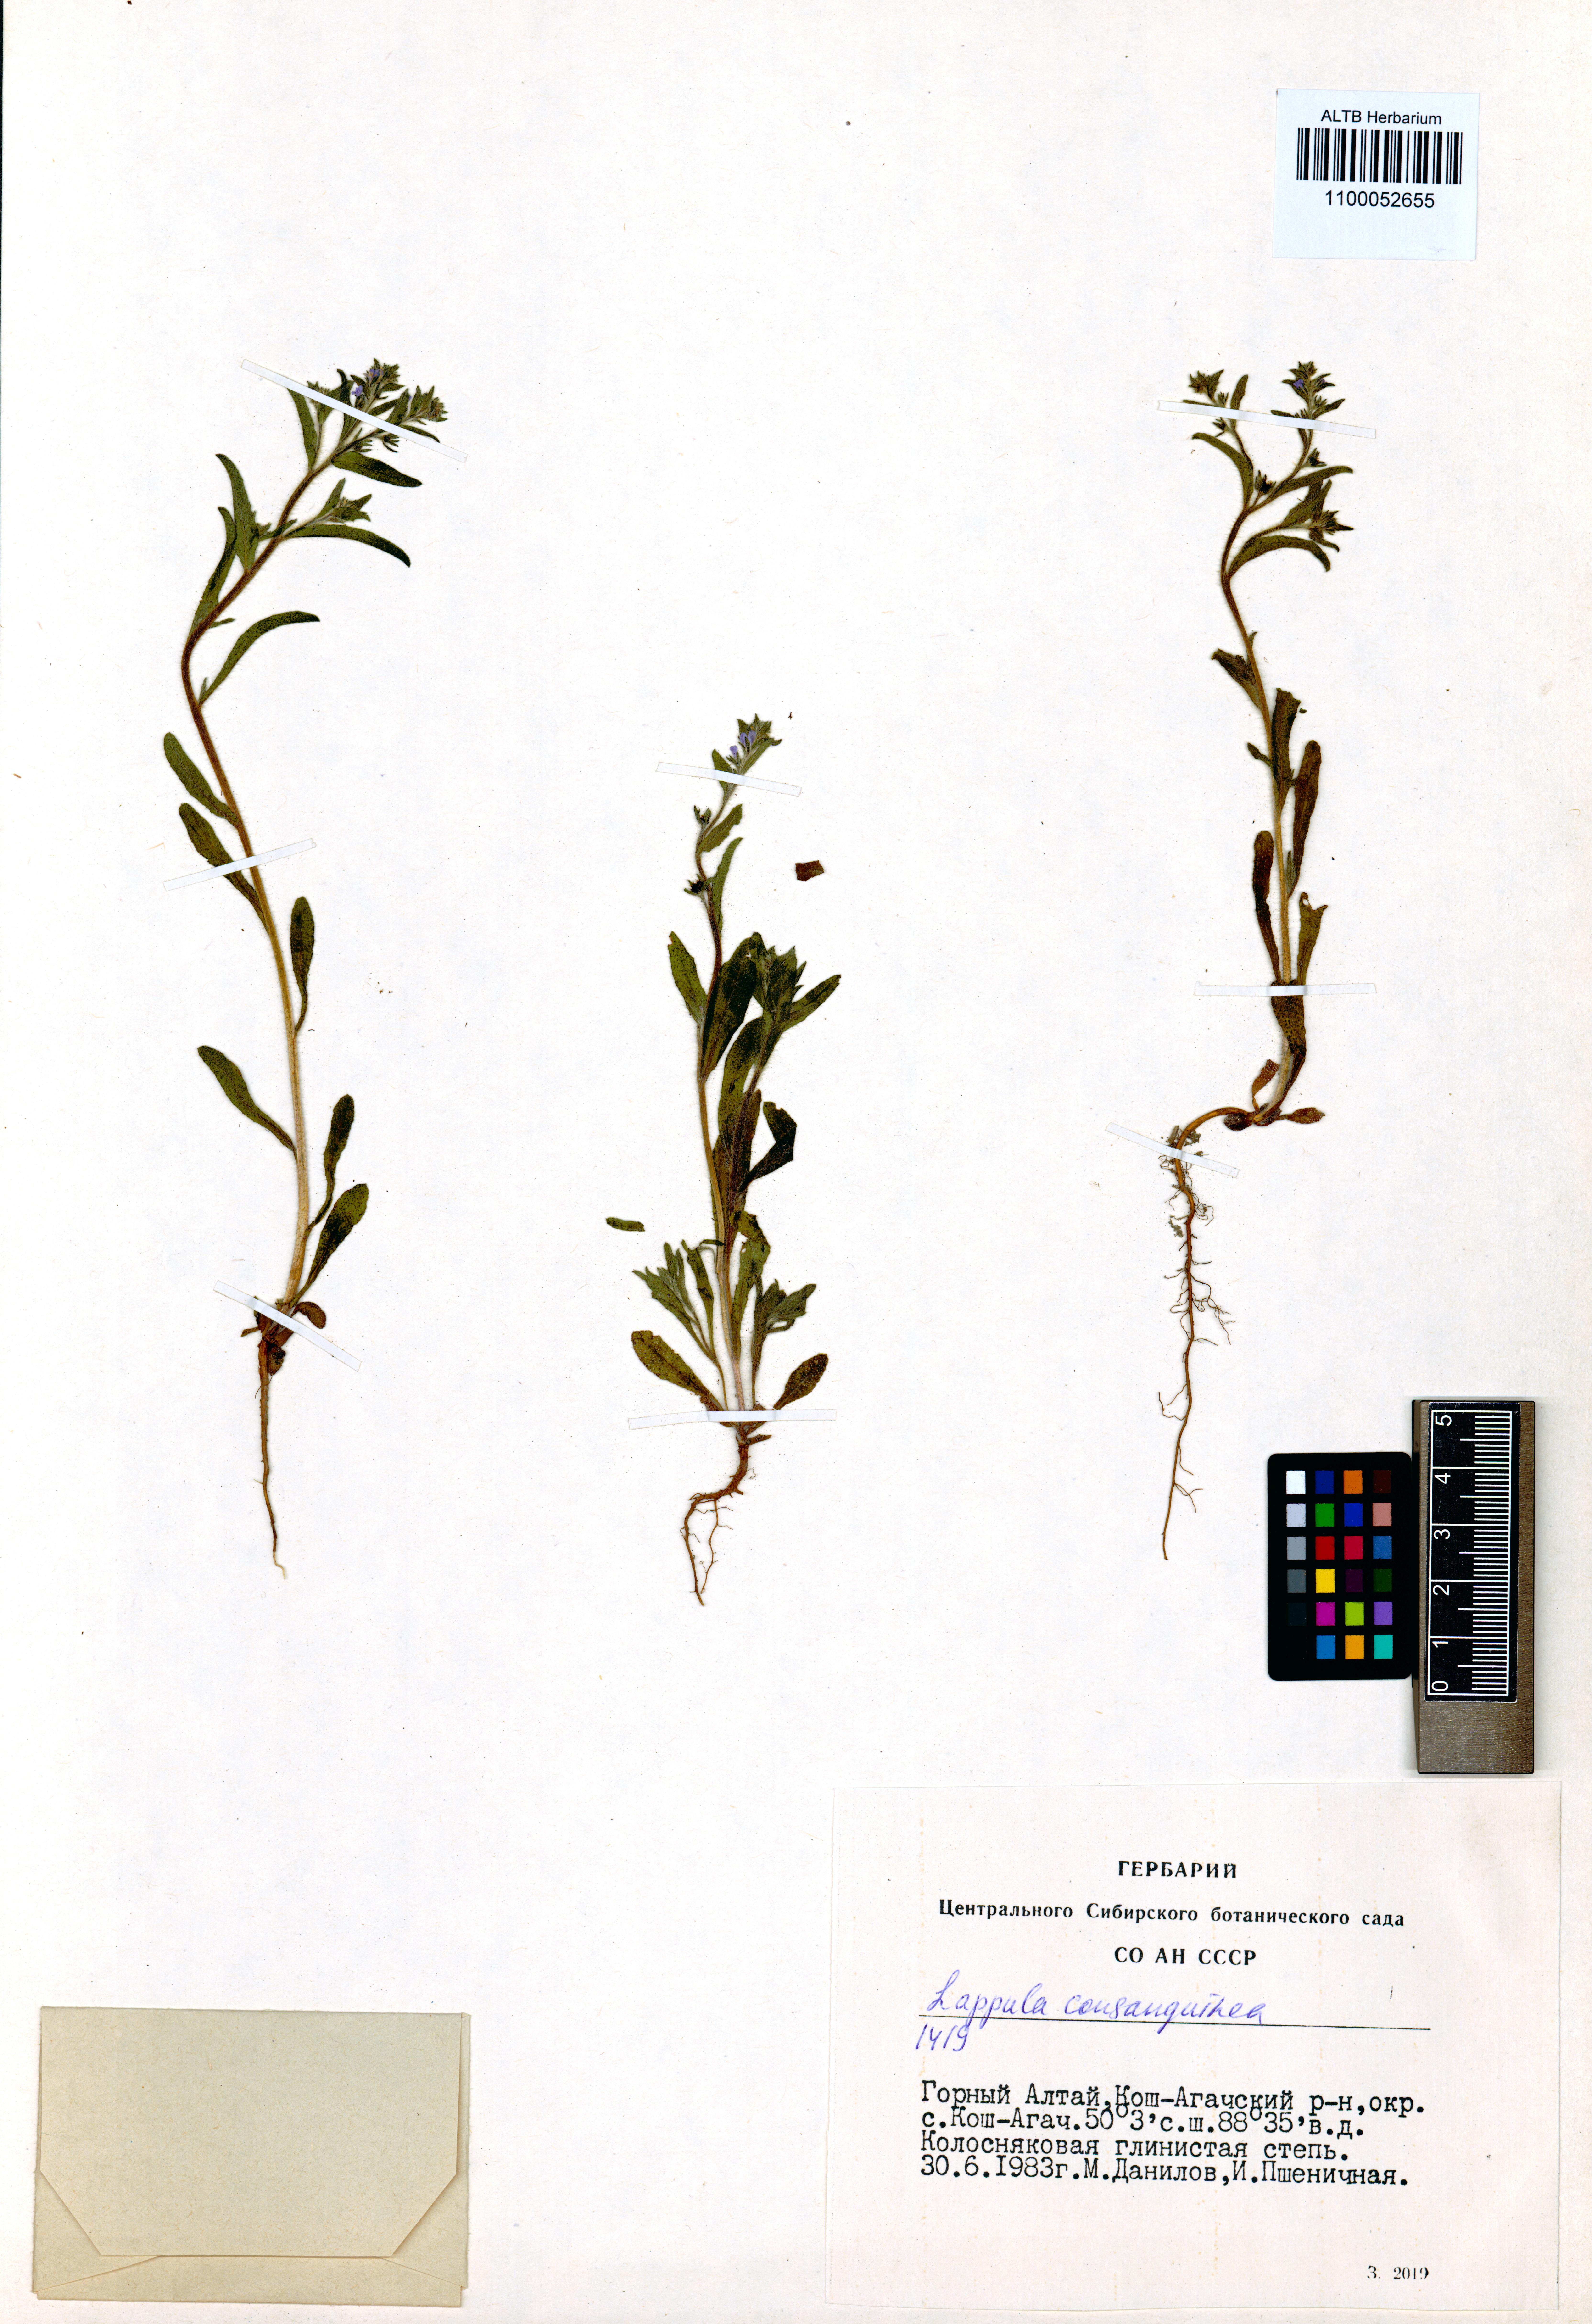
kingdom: Plantae
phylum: Tracheophyta
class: Magnoliopsida
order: Boraginales
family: Boraginaceae
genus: Lappula
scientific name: Lappula squarrosa
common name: European stickseed
